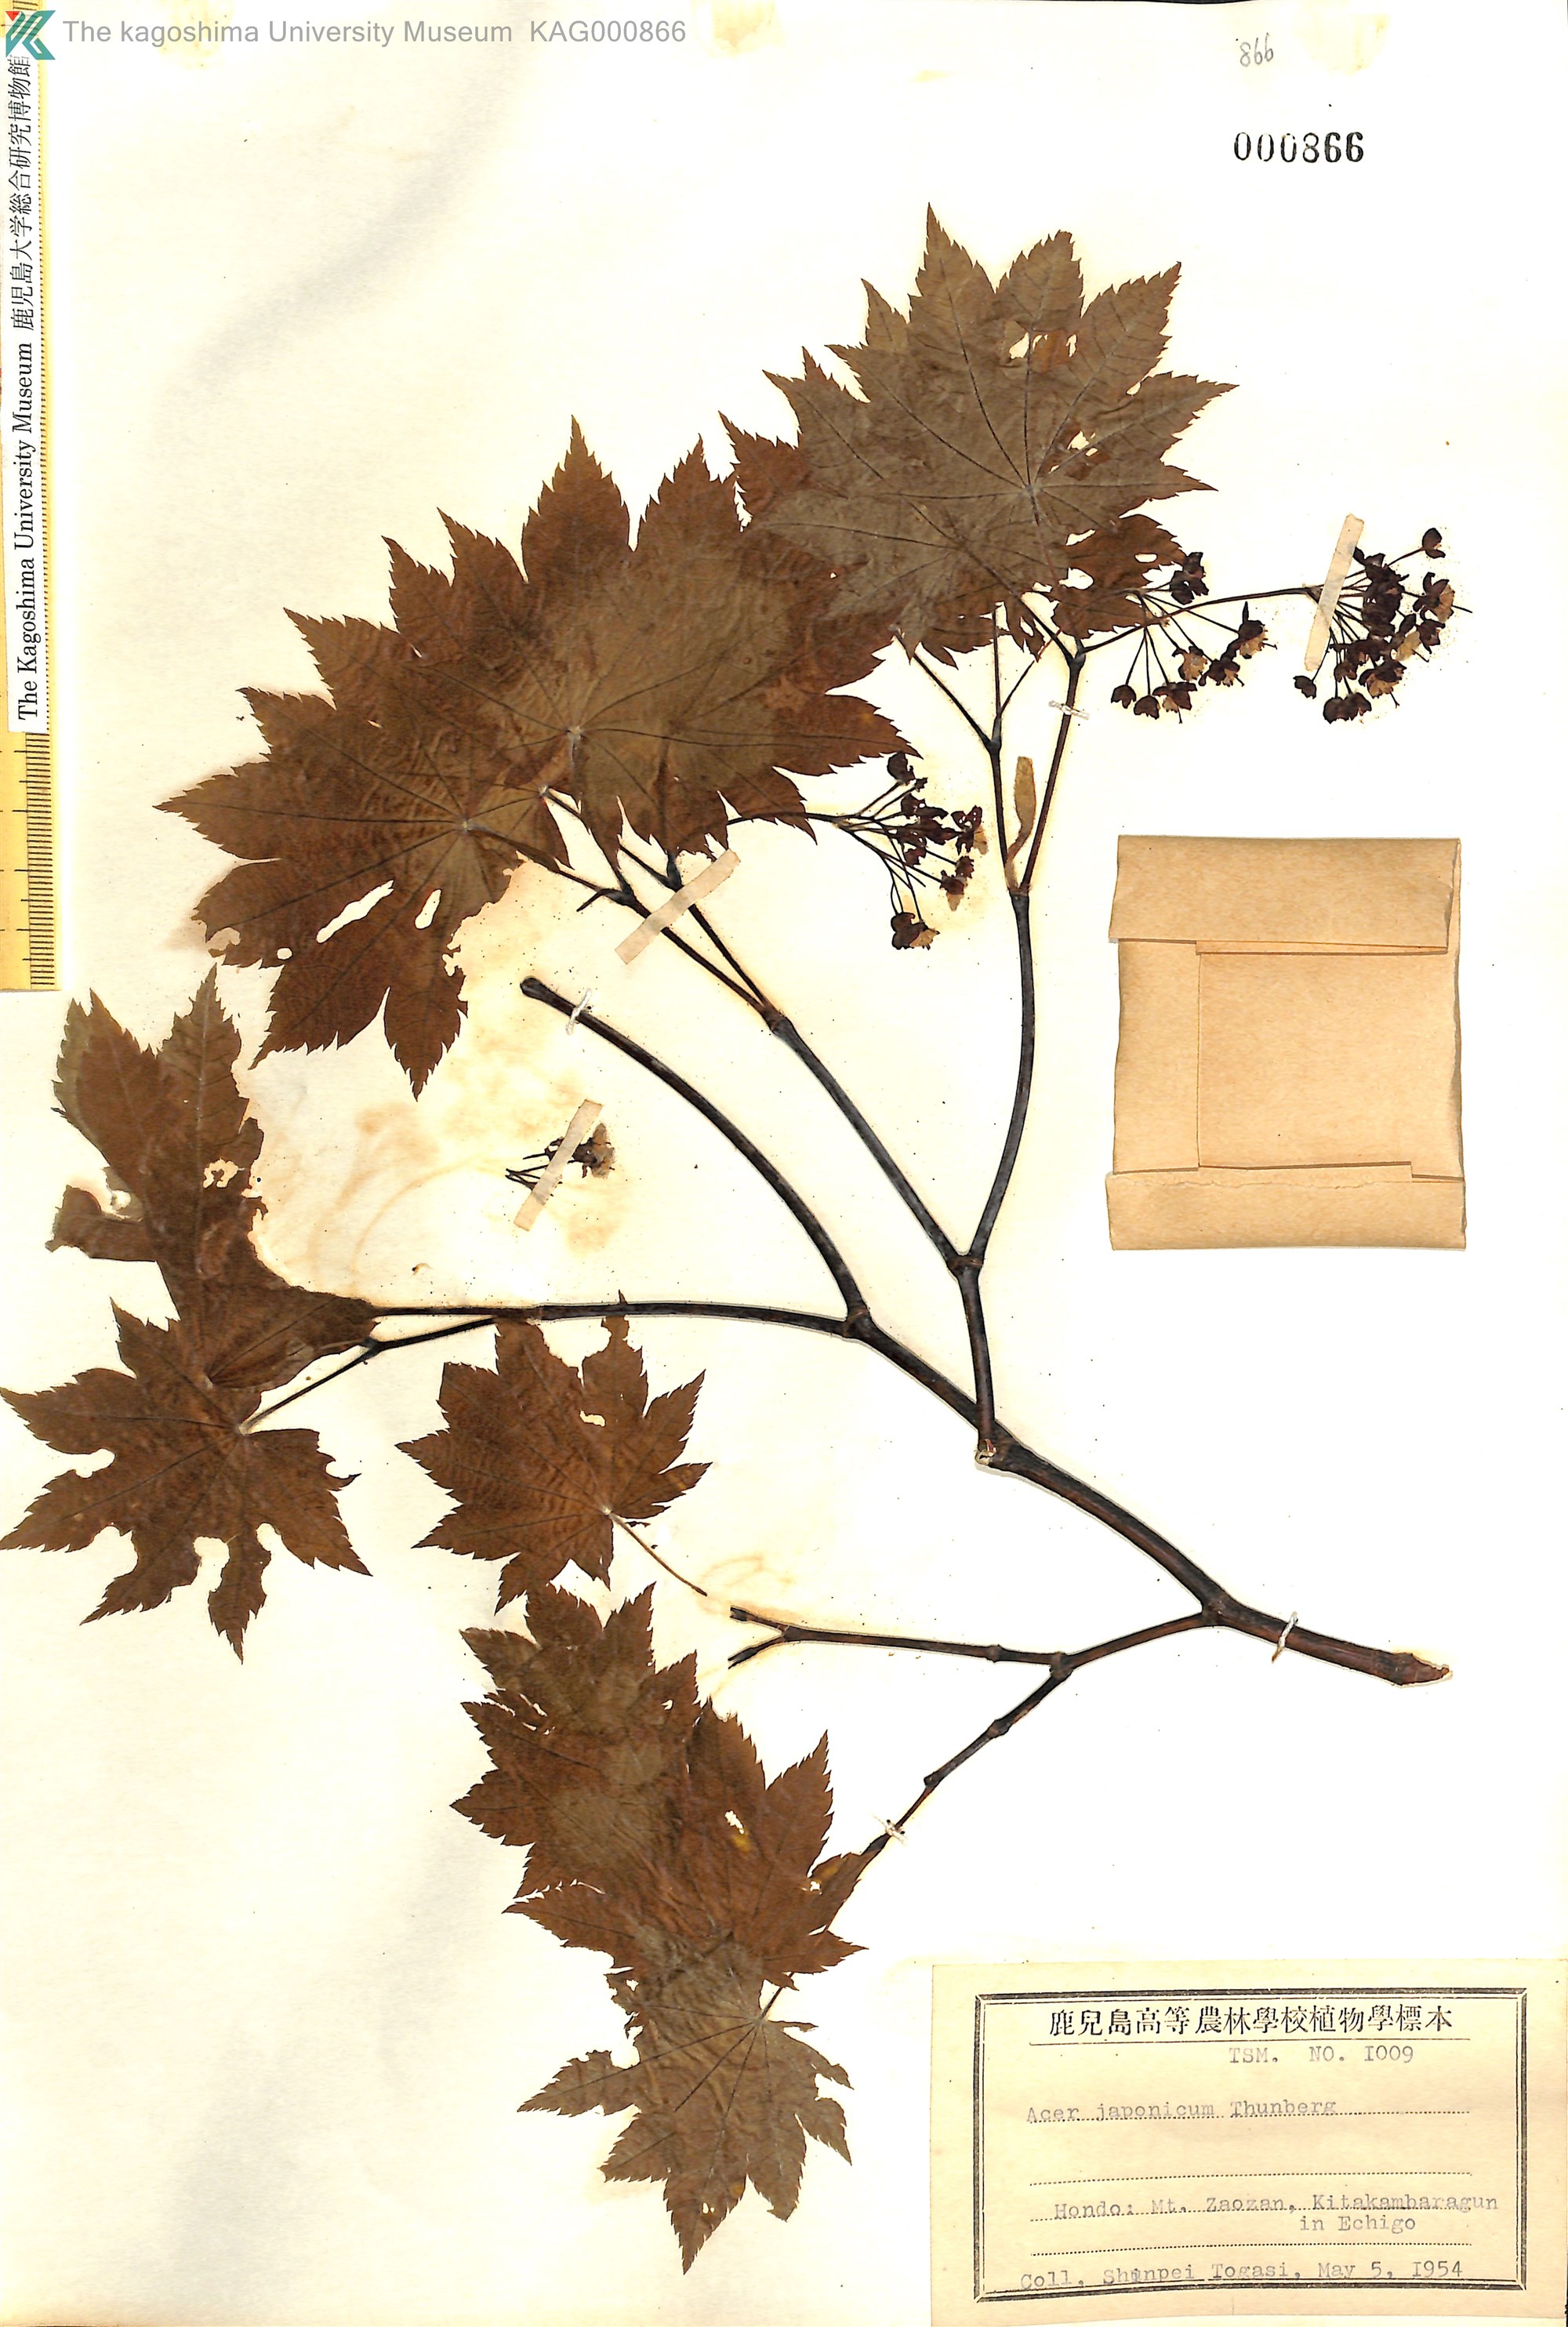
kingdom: Plantae
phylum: Tracheophyta
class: Magnoliopsida
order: Sapindales
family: Sapindaceae
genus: Acer
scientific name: Acer japonicum
